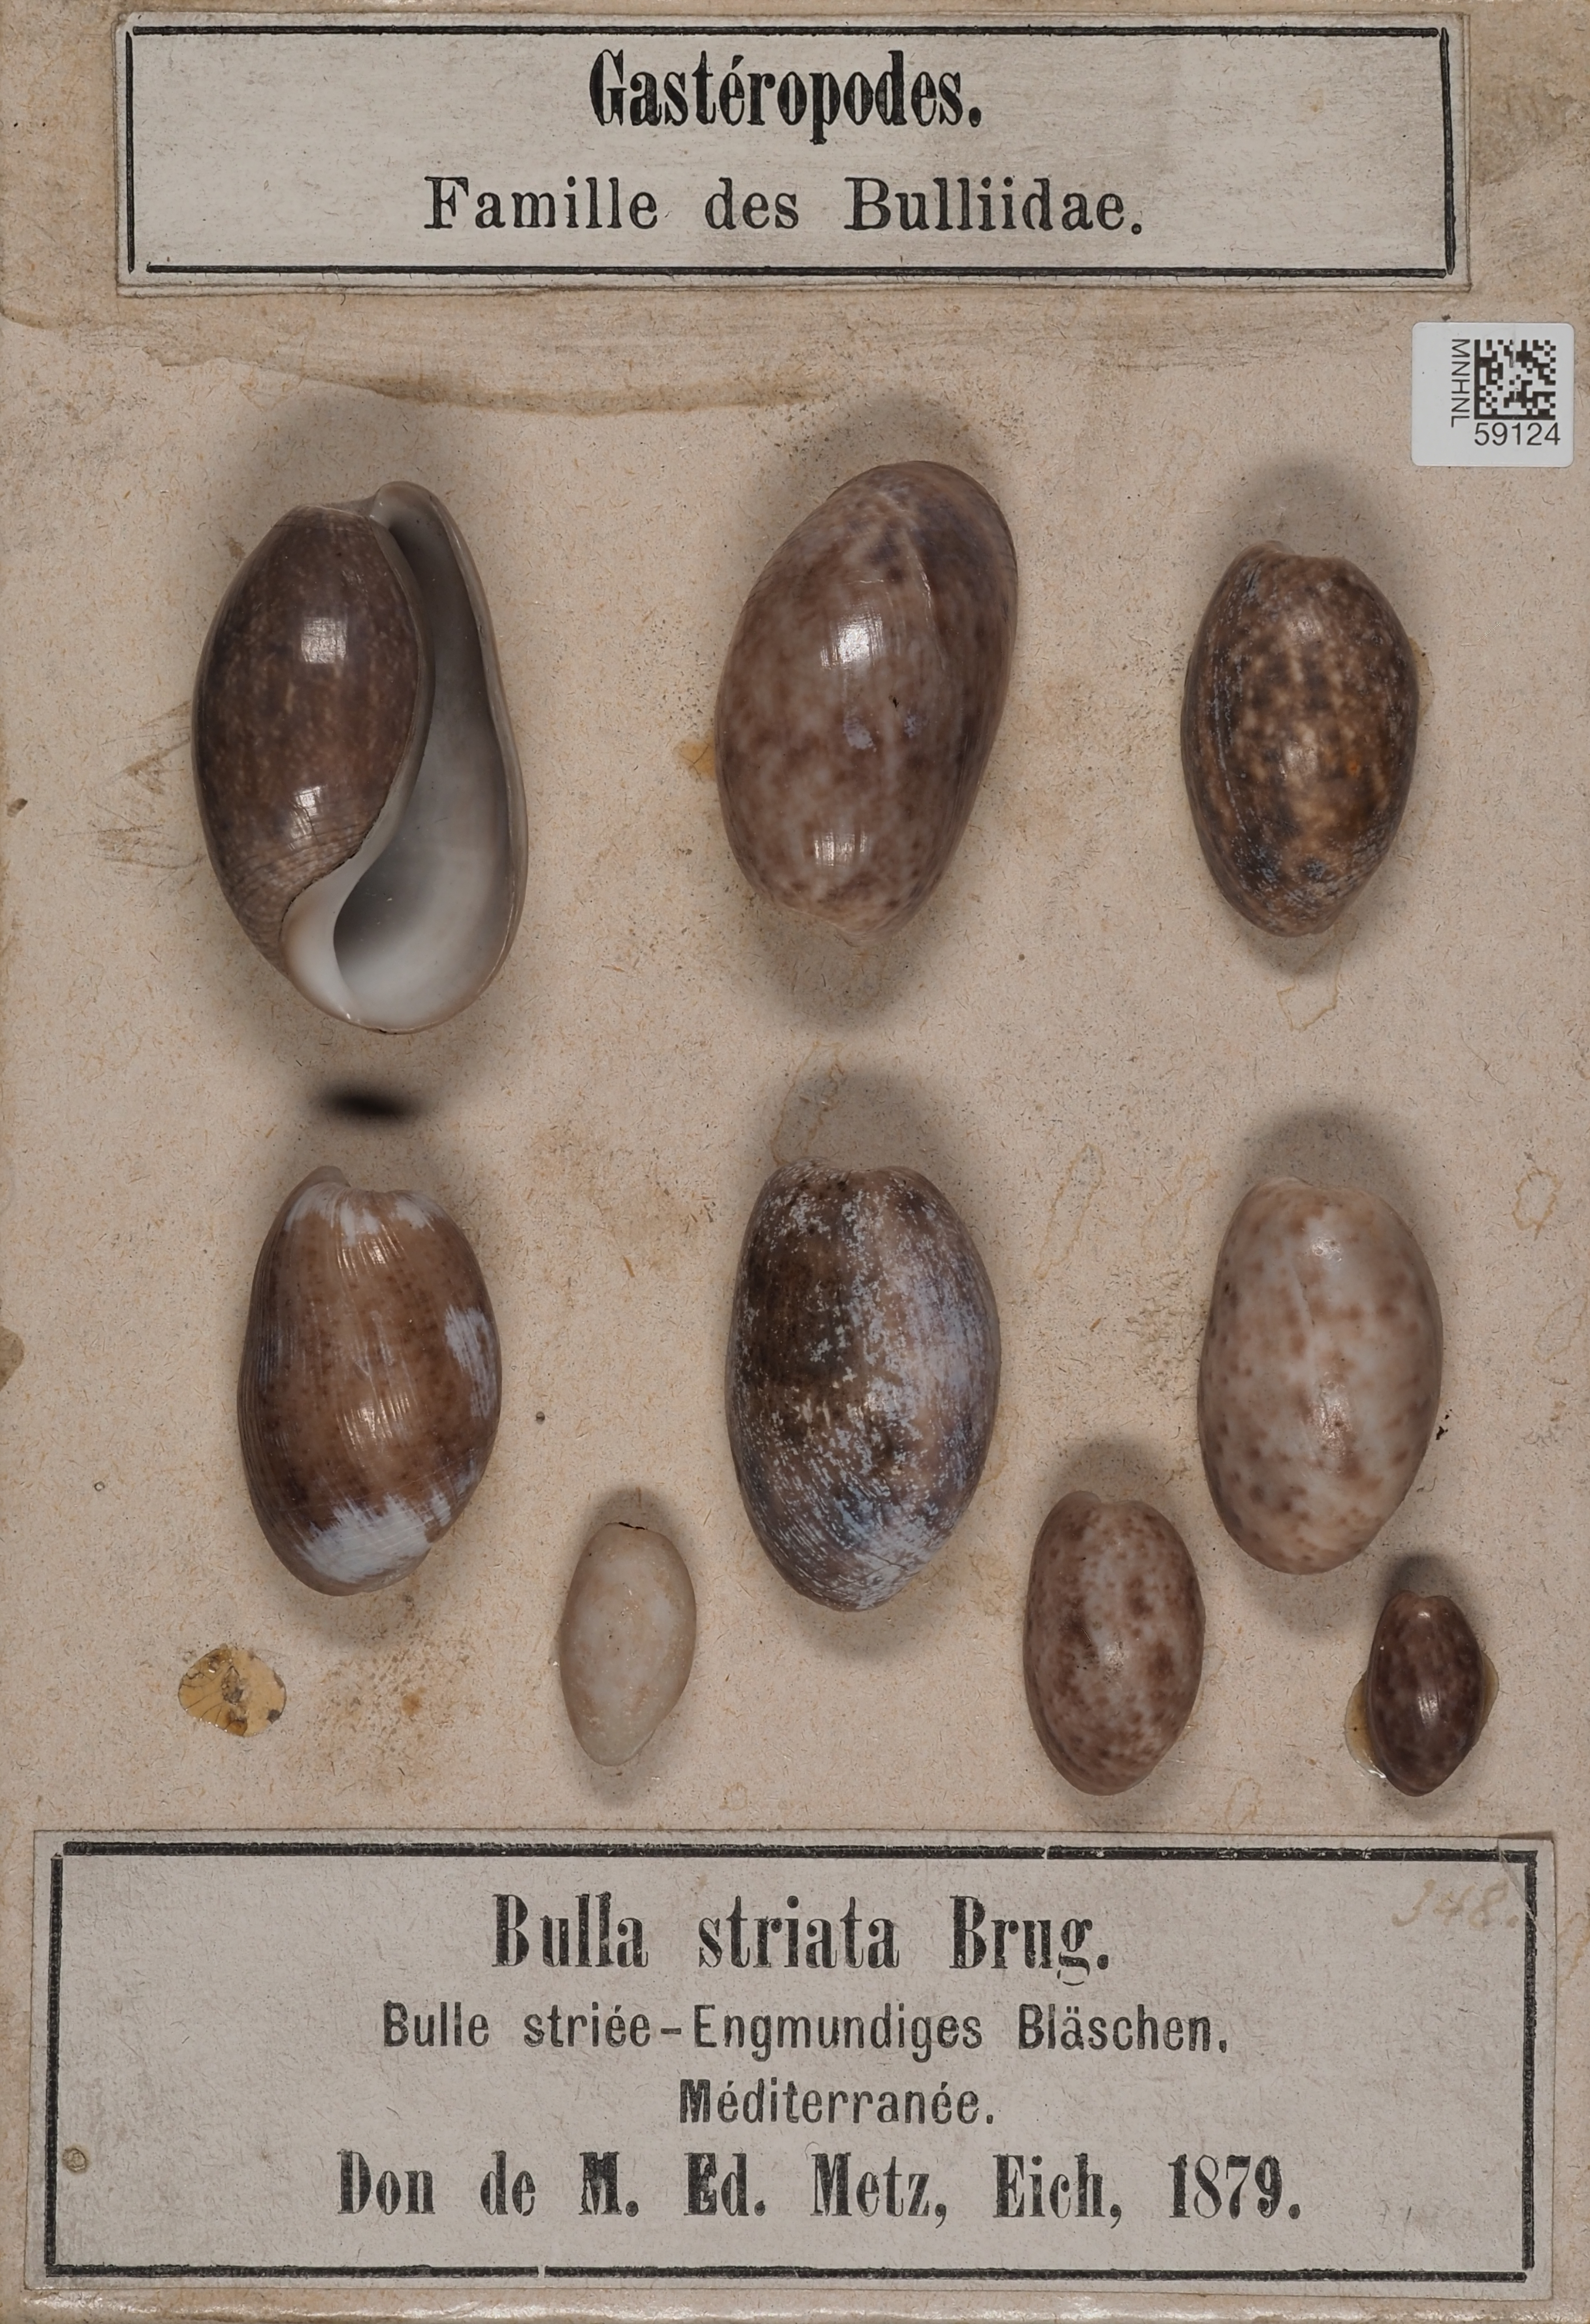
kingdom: Animalia
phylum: Mollusca
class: Gastropoda
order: Cephalaspidea
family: Bullidae
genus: Bulla
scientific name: Bulla striata
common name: Common atlantic bubble
